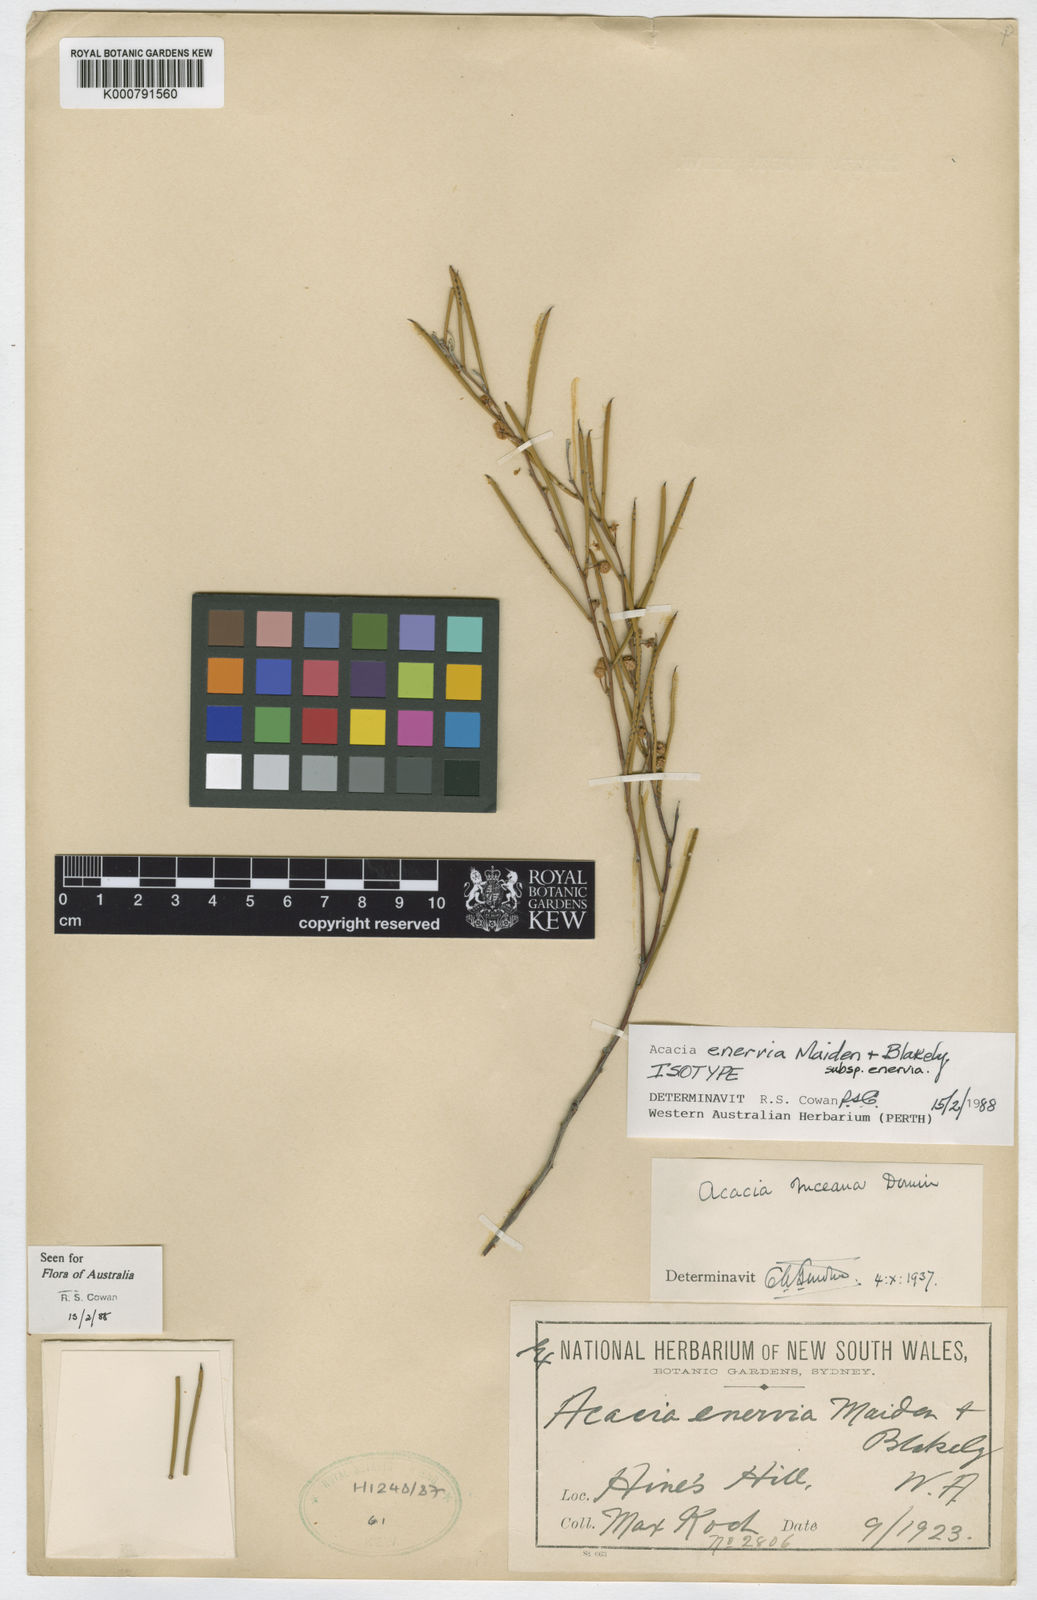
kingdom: Plantae
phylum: Tracheophyta
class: Magnoliopsida
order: Fabales
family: Fabaceae
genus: Acacia
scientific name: Acacia inceana
